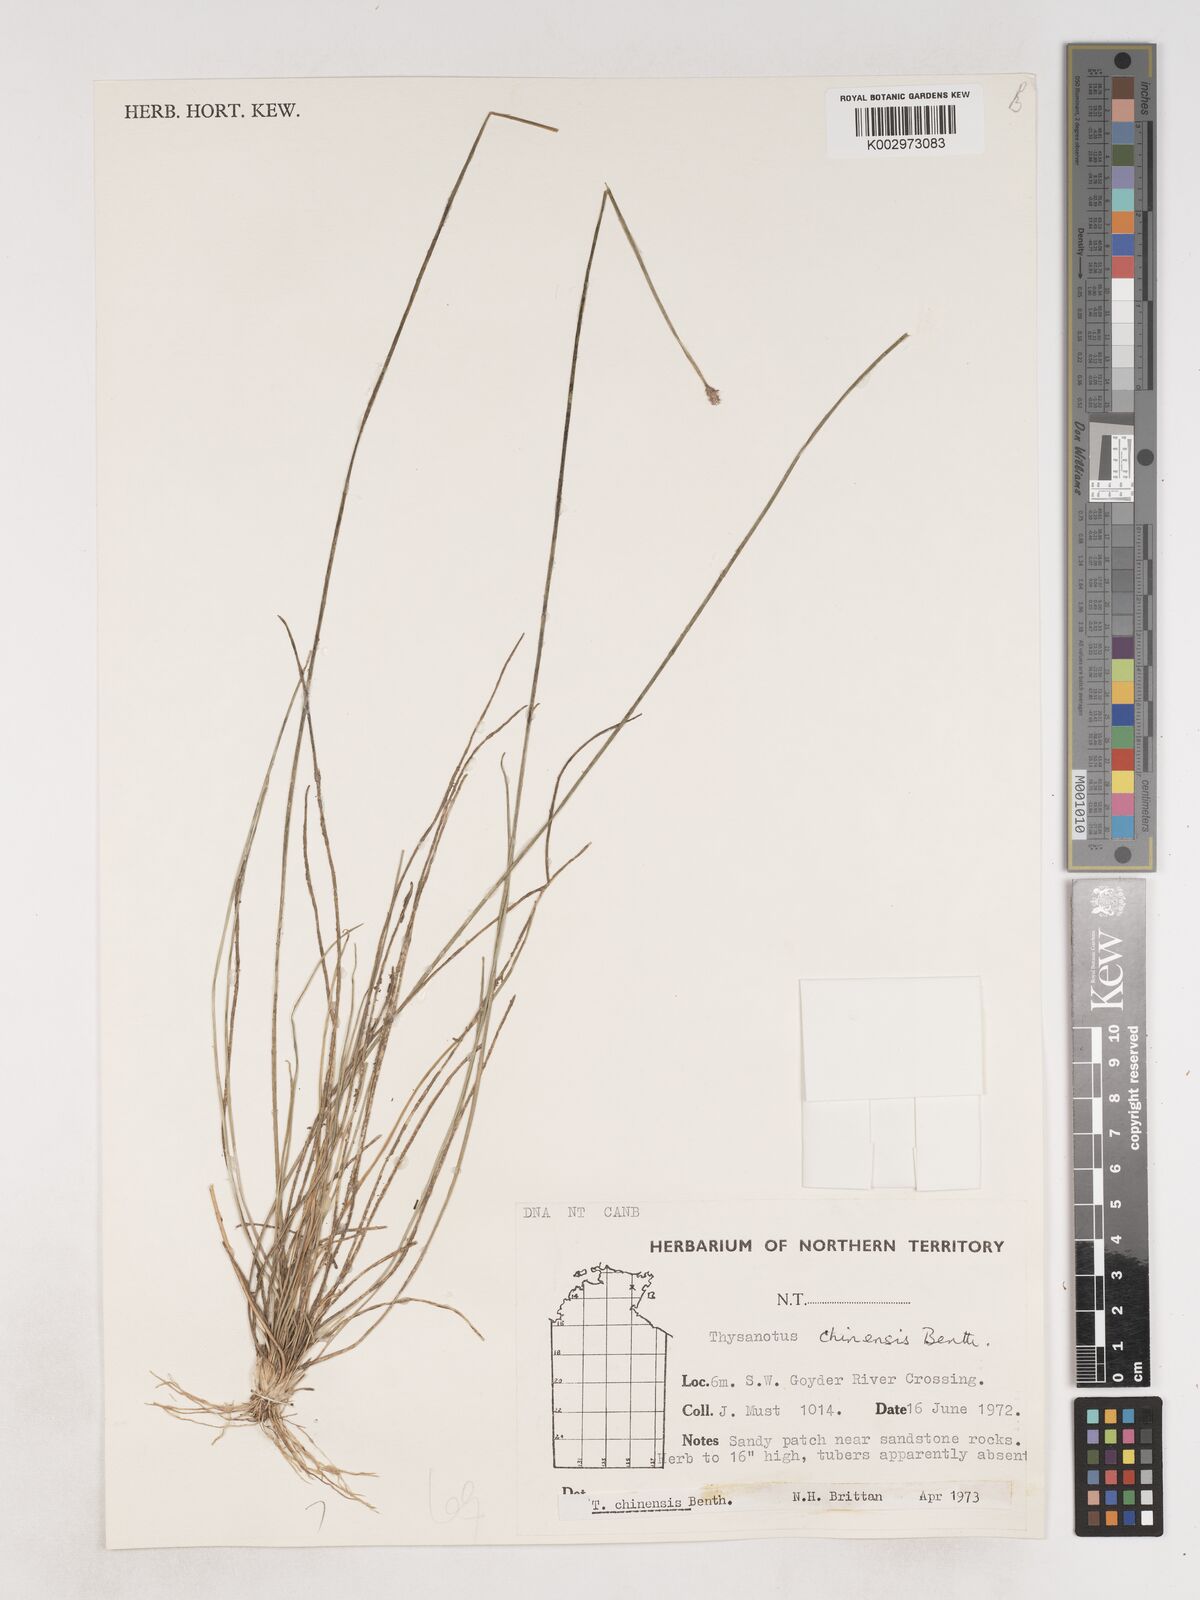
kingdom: Plantae
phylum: Tracheophyta
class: Liliopsida
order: Asparagales
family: Asparagaceae
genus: Thysanotus
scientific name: Thysanotus chinensis
